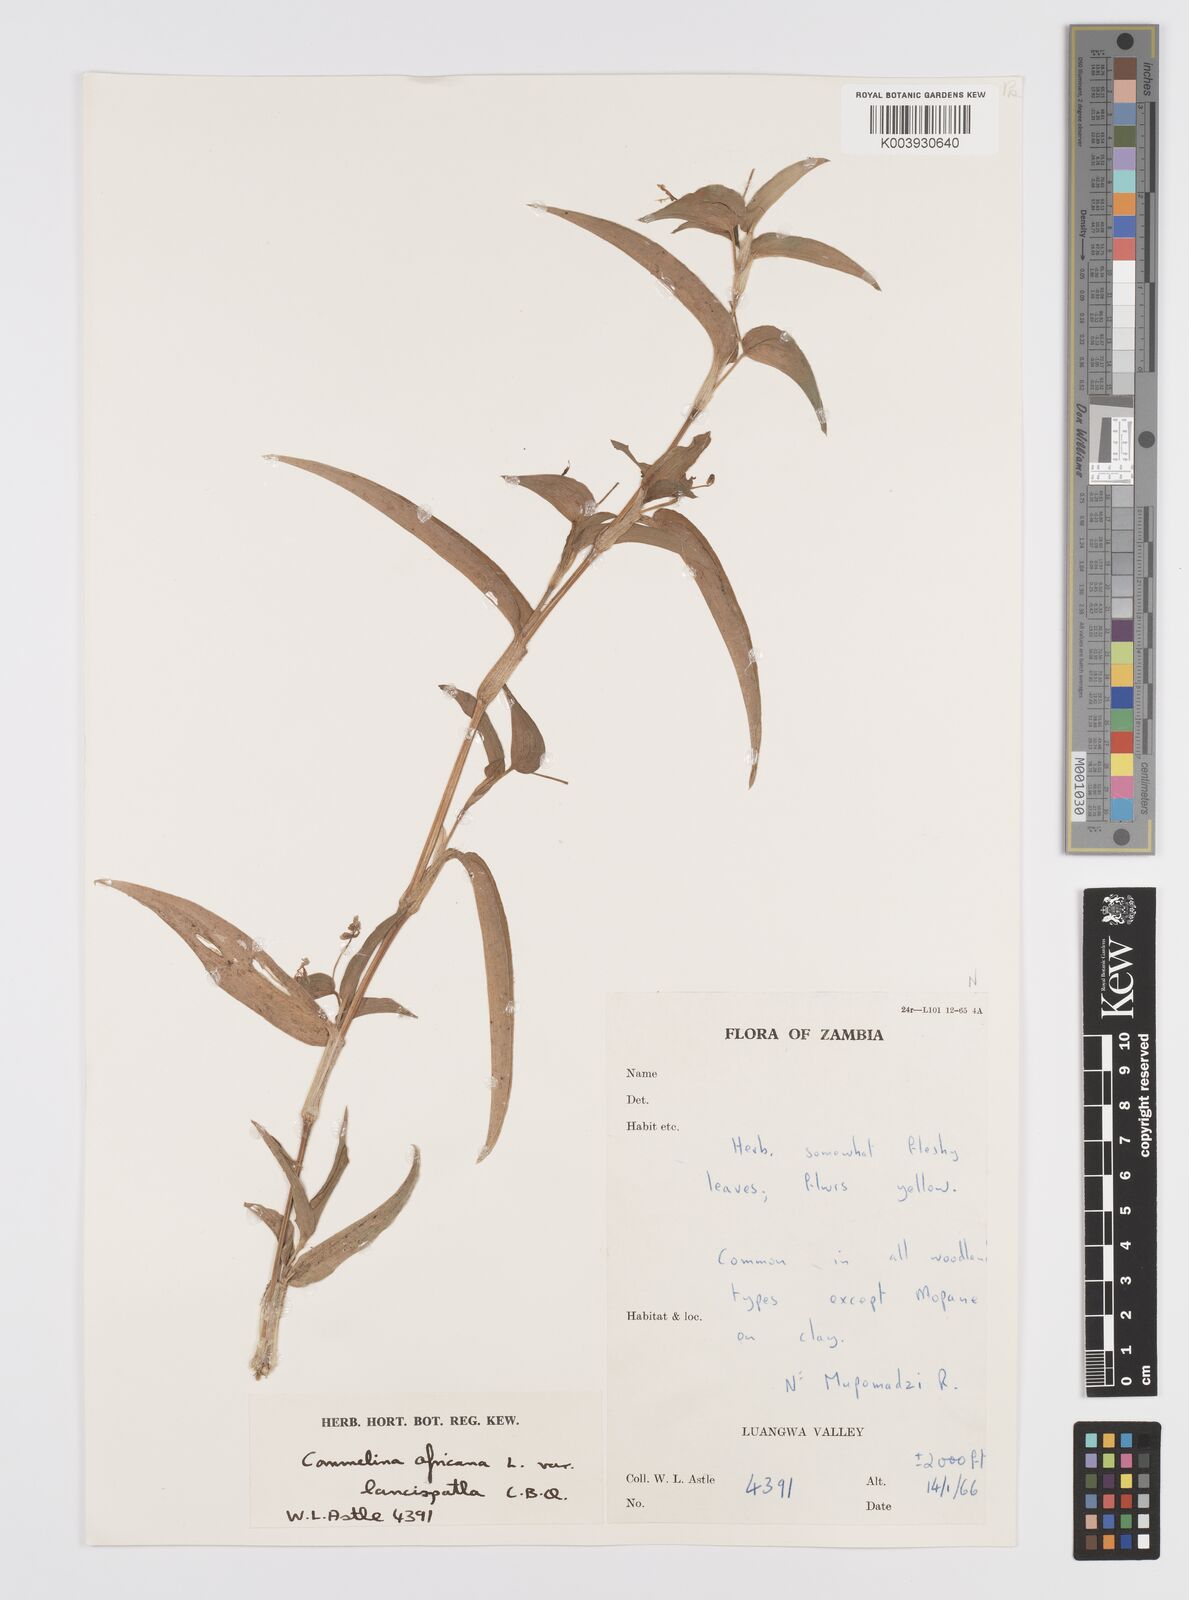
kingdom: Plantae
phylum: Tracheophyta
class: Liliopsida
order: Commelinales
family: Commelinaceae
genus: Commelina
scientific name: Commelina africana
